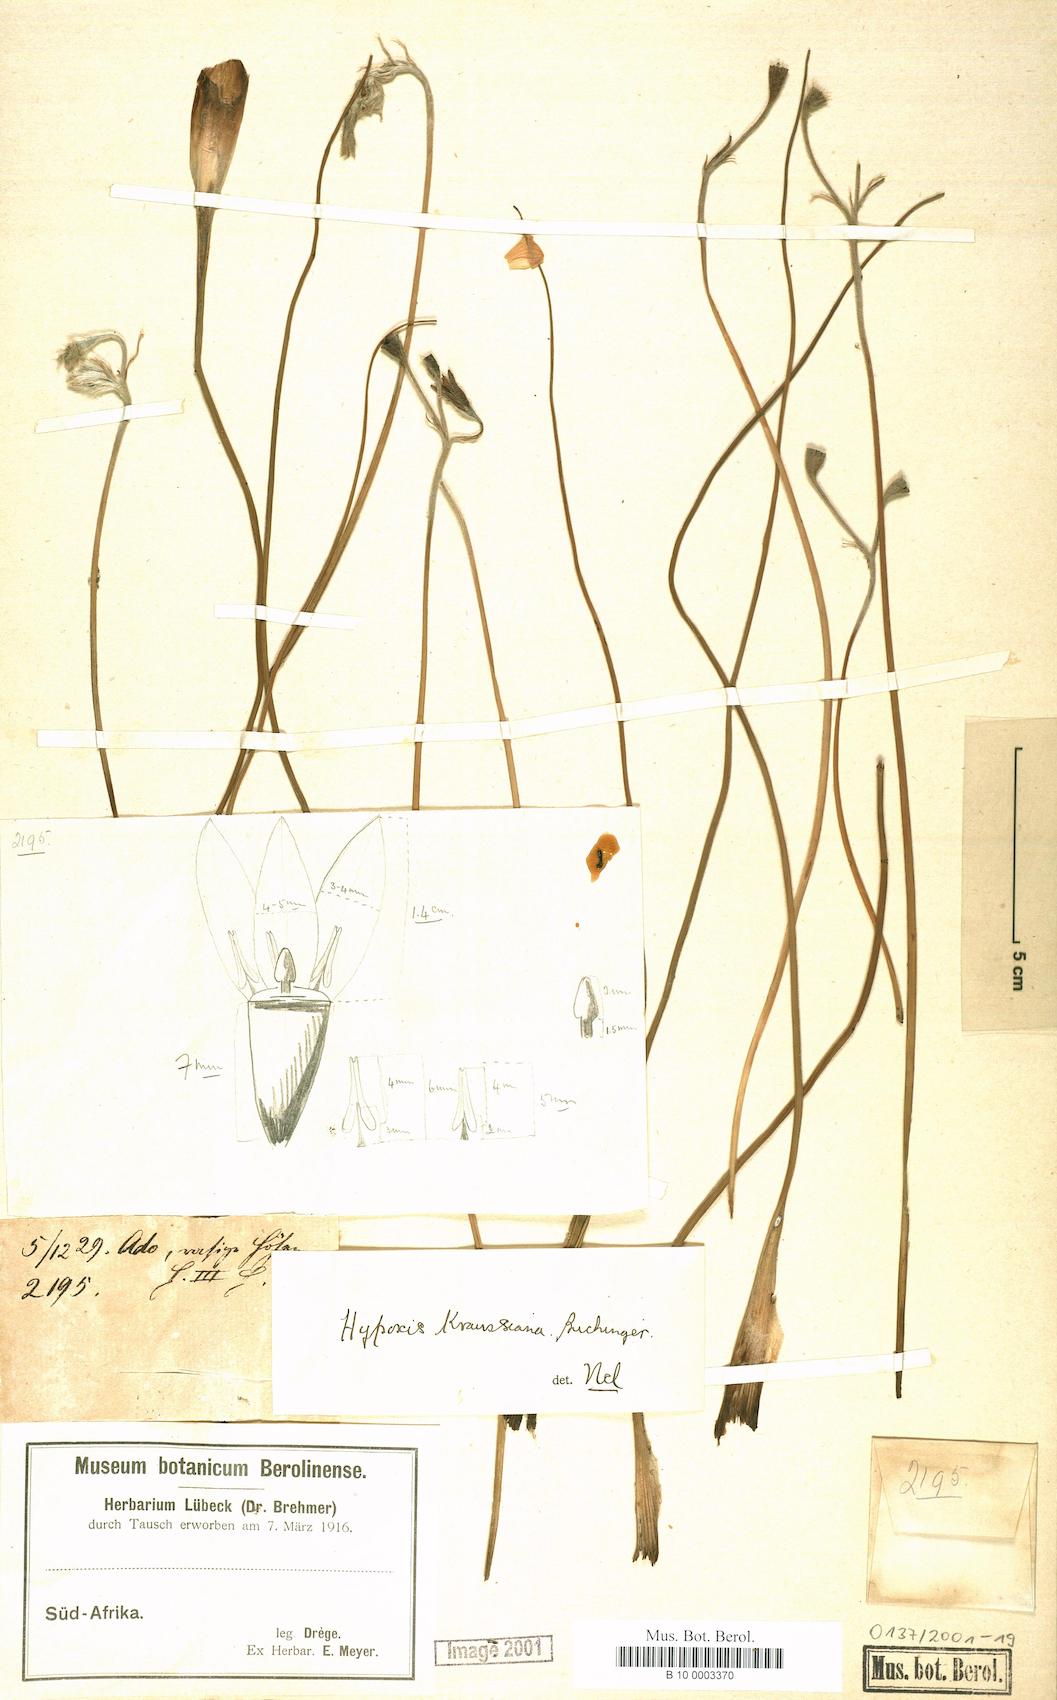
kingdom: Plantae
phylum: Tracheophyta
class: Liliopsida
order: Asparagales
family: Hypoxidaceae
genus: Hypoxis
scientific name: Hypoxis kraussiana
